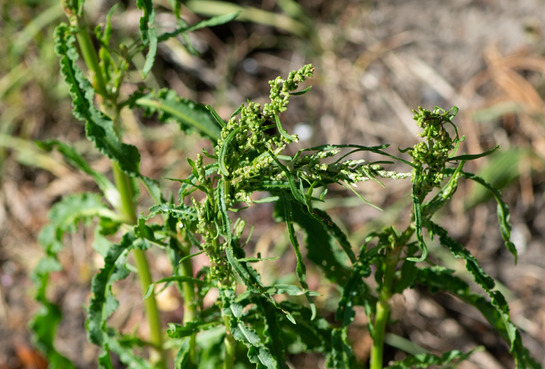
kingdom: Plantae
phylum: Tracheophyta
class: Magnoliopsida
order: Caryophyllales
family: Polygonaceae
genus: Rumex
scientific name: Rumex crispus
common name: Kruset skræppe
